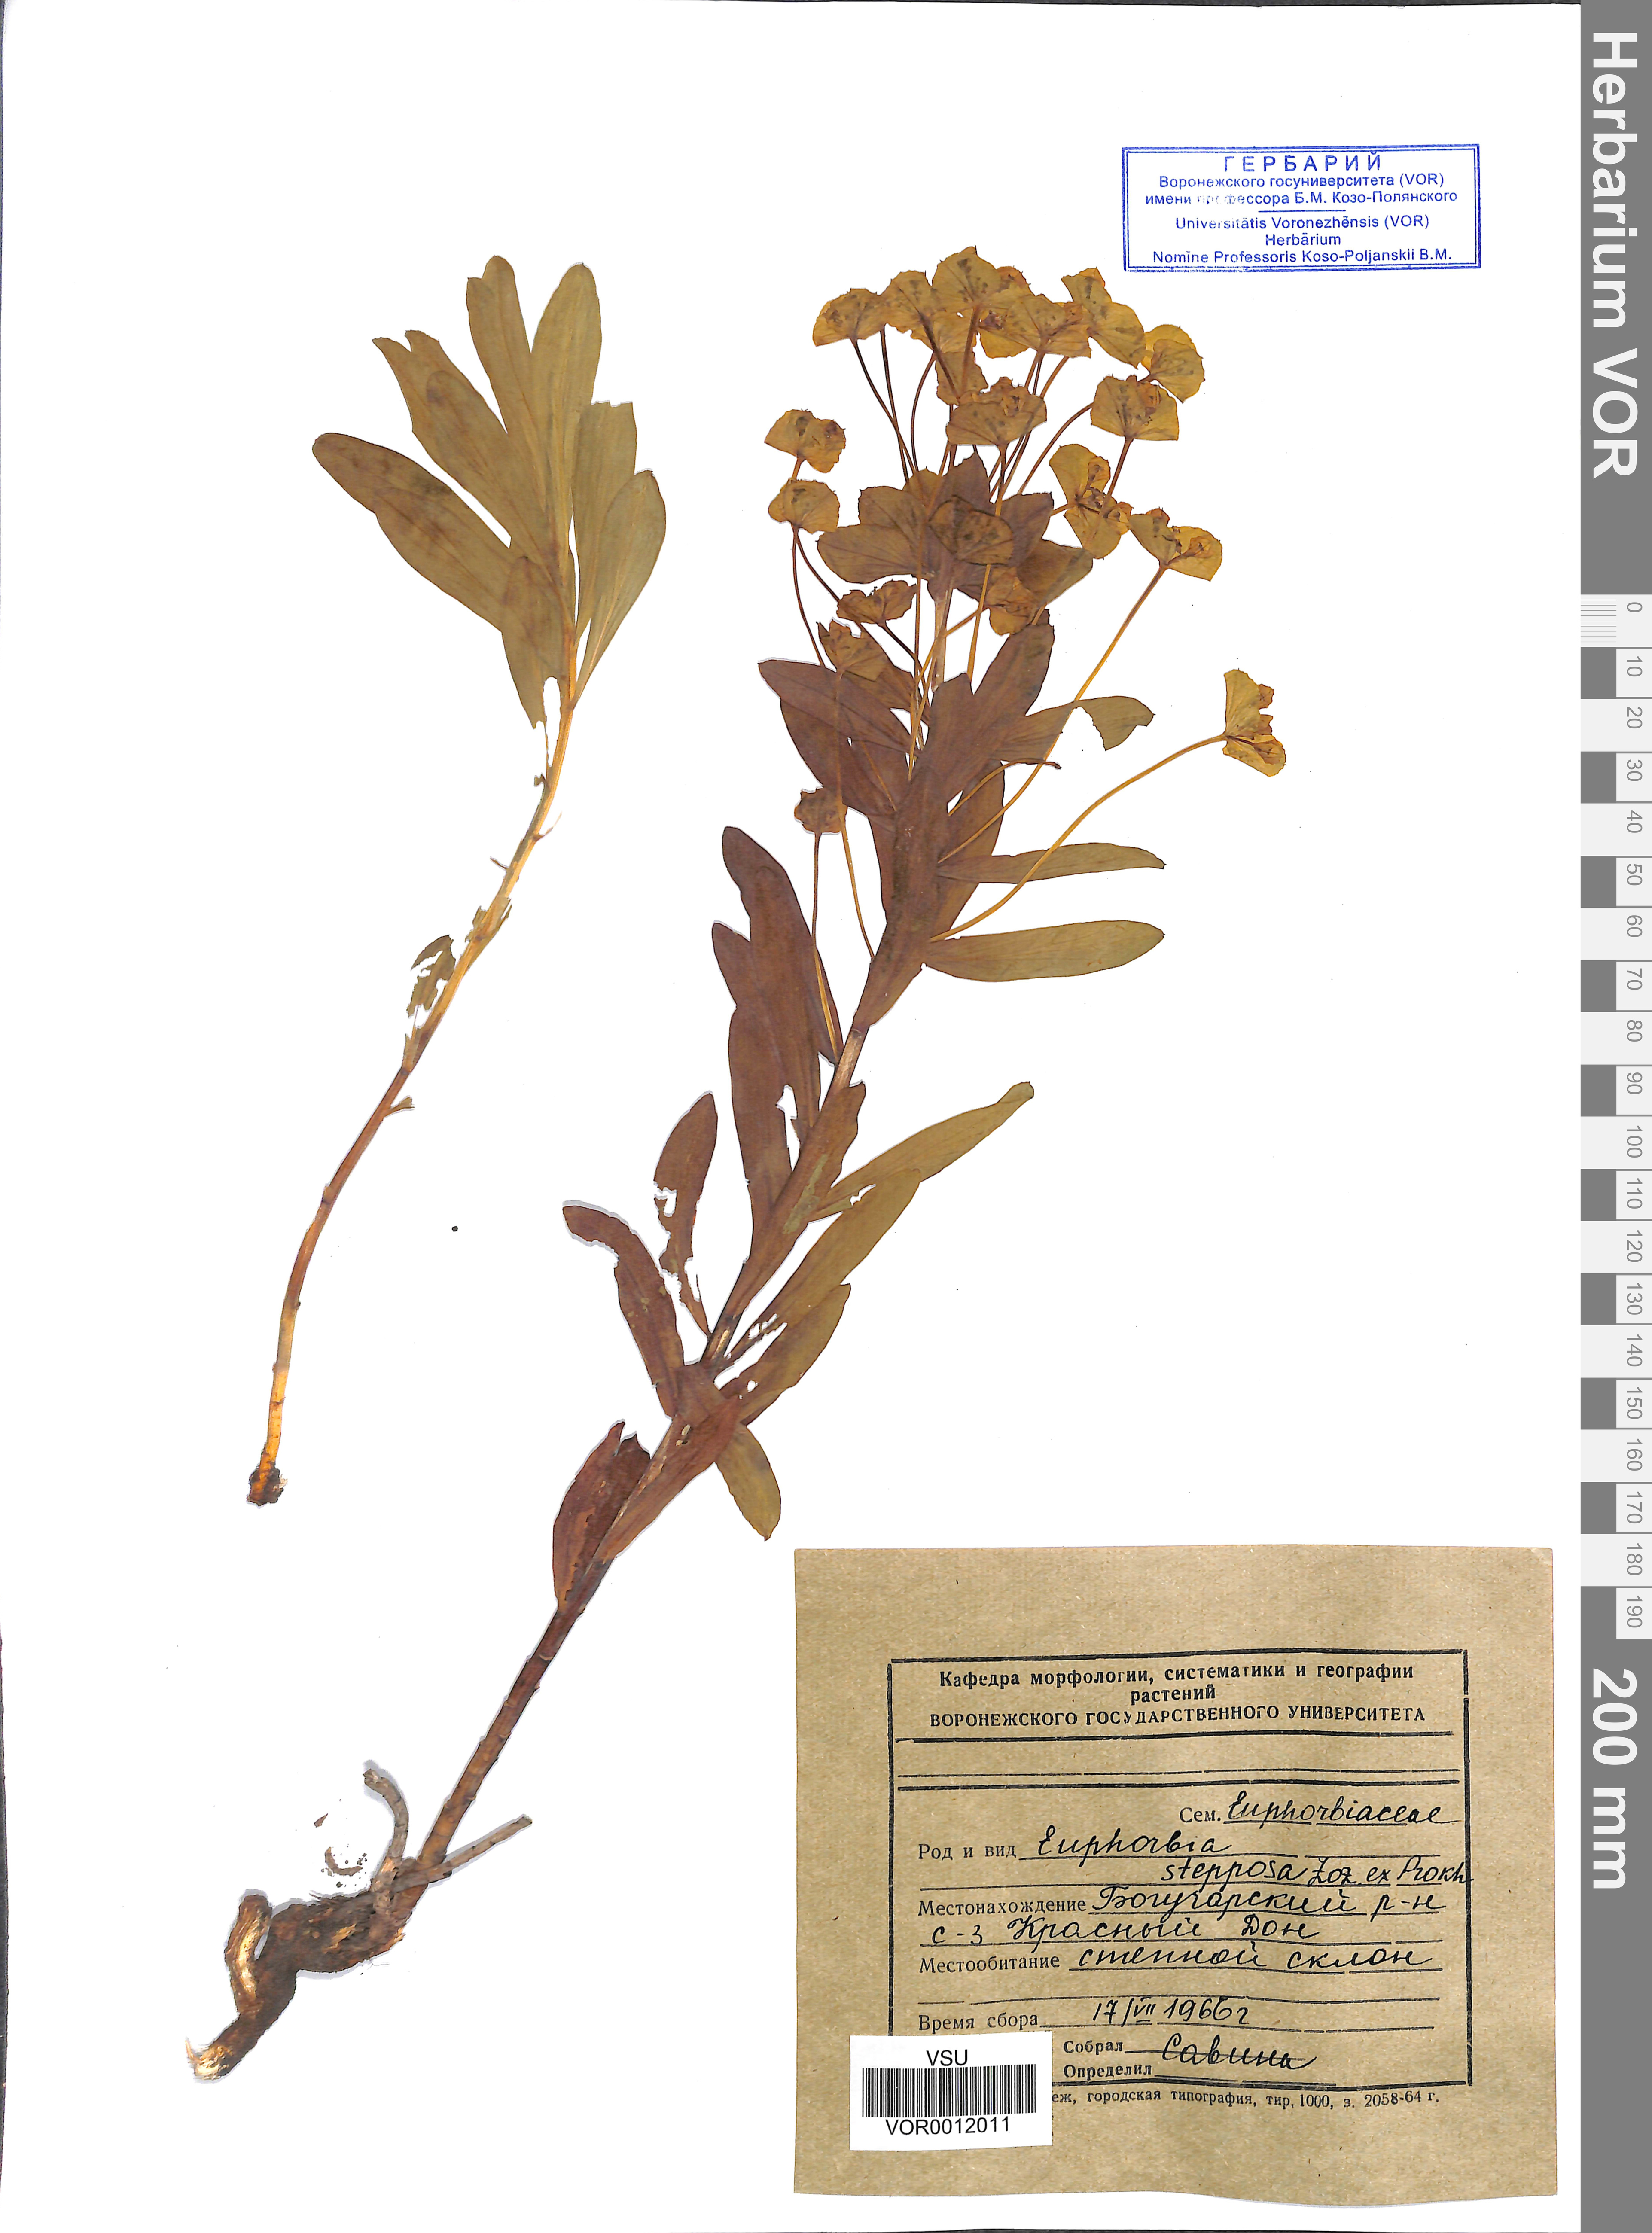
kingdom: Plantae
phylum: Tracheophyta
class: Magnoliopsida
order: Malpighiales
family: Euphorbiaceae
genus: Euphorbia
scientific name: Euphorbia stepposa
